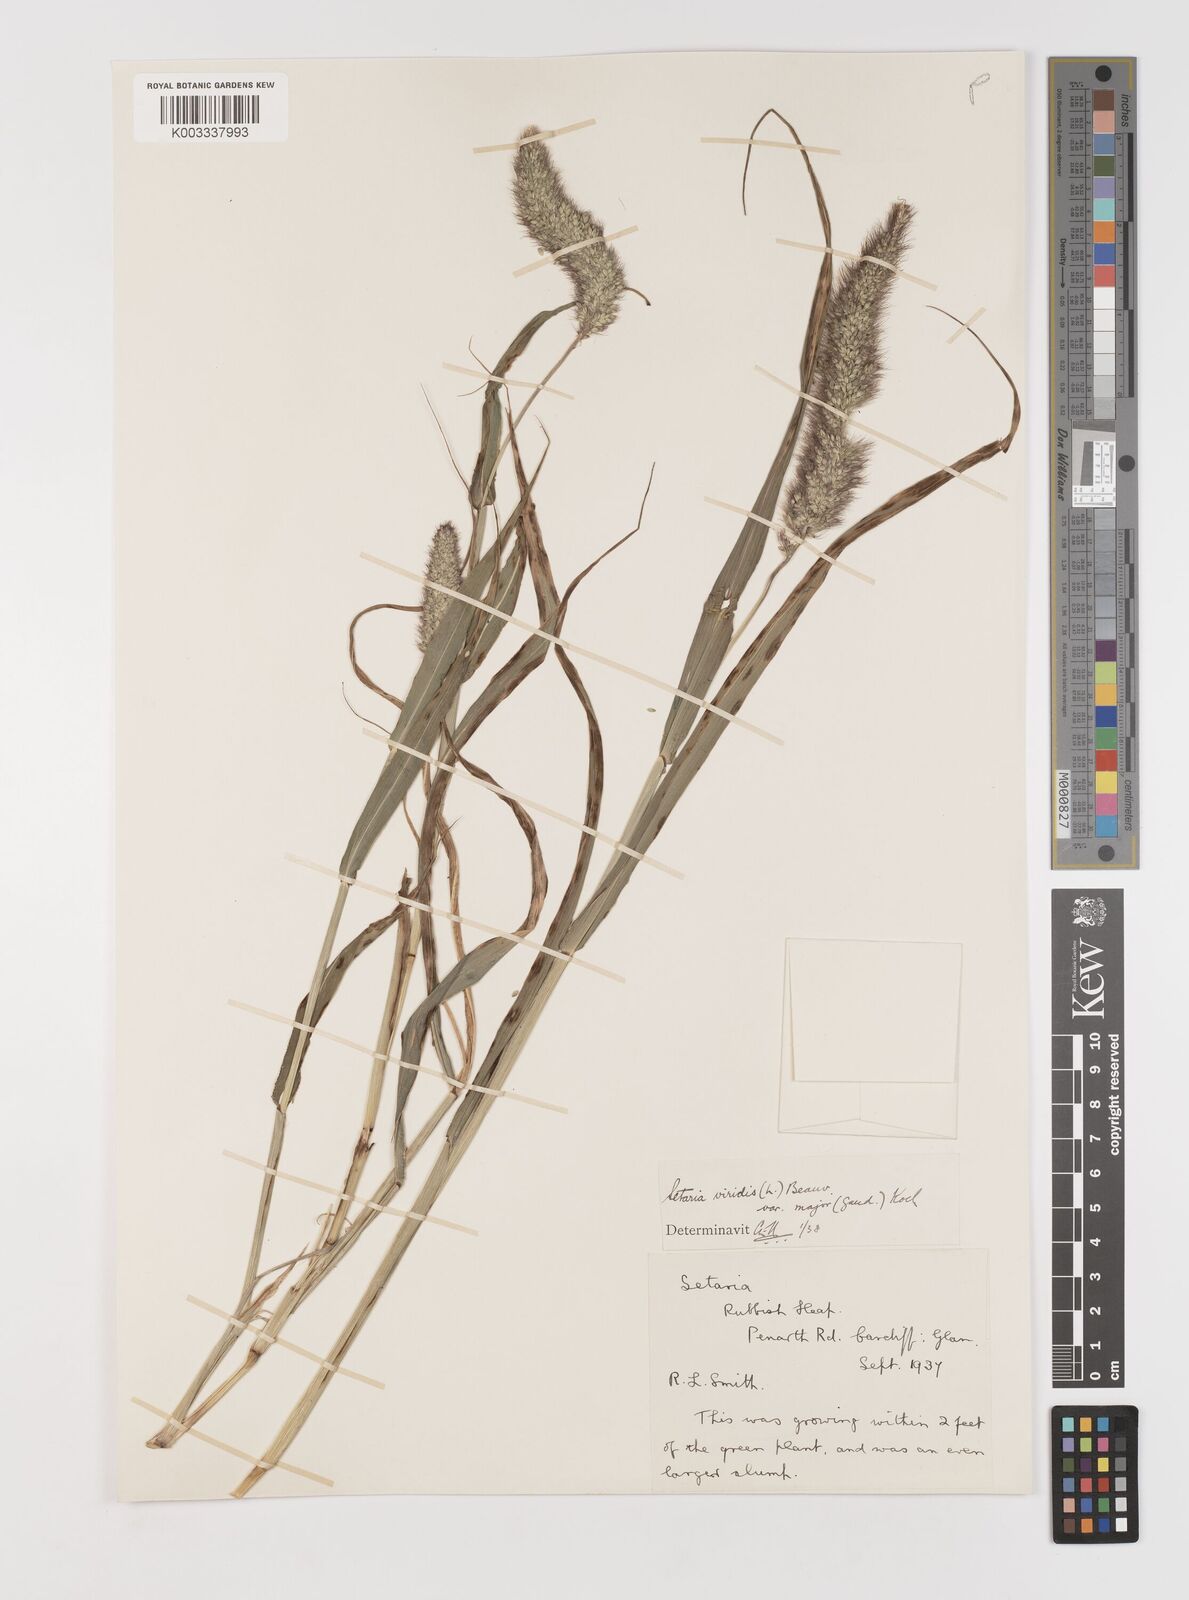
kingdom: Plantae
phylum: Tracheophyta
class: Liliopsida
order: Poales
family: Poaceae
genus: Setaria
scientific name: Setaria italica
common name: Foxtail bristle-grass
